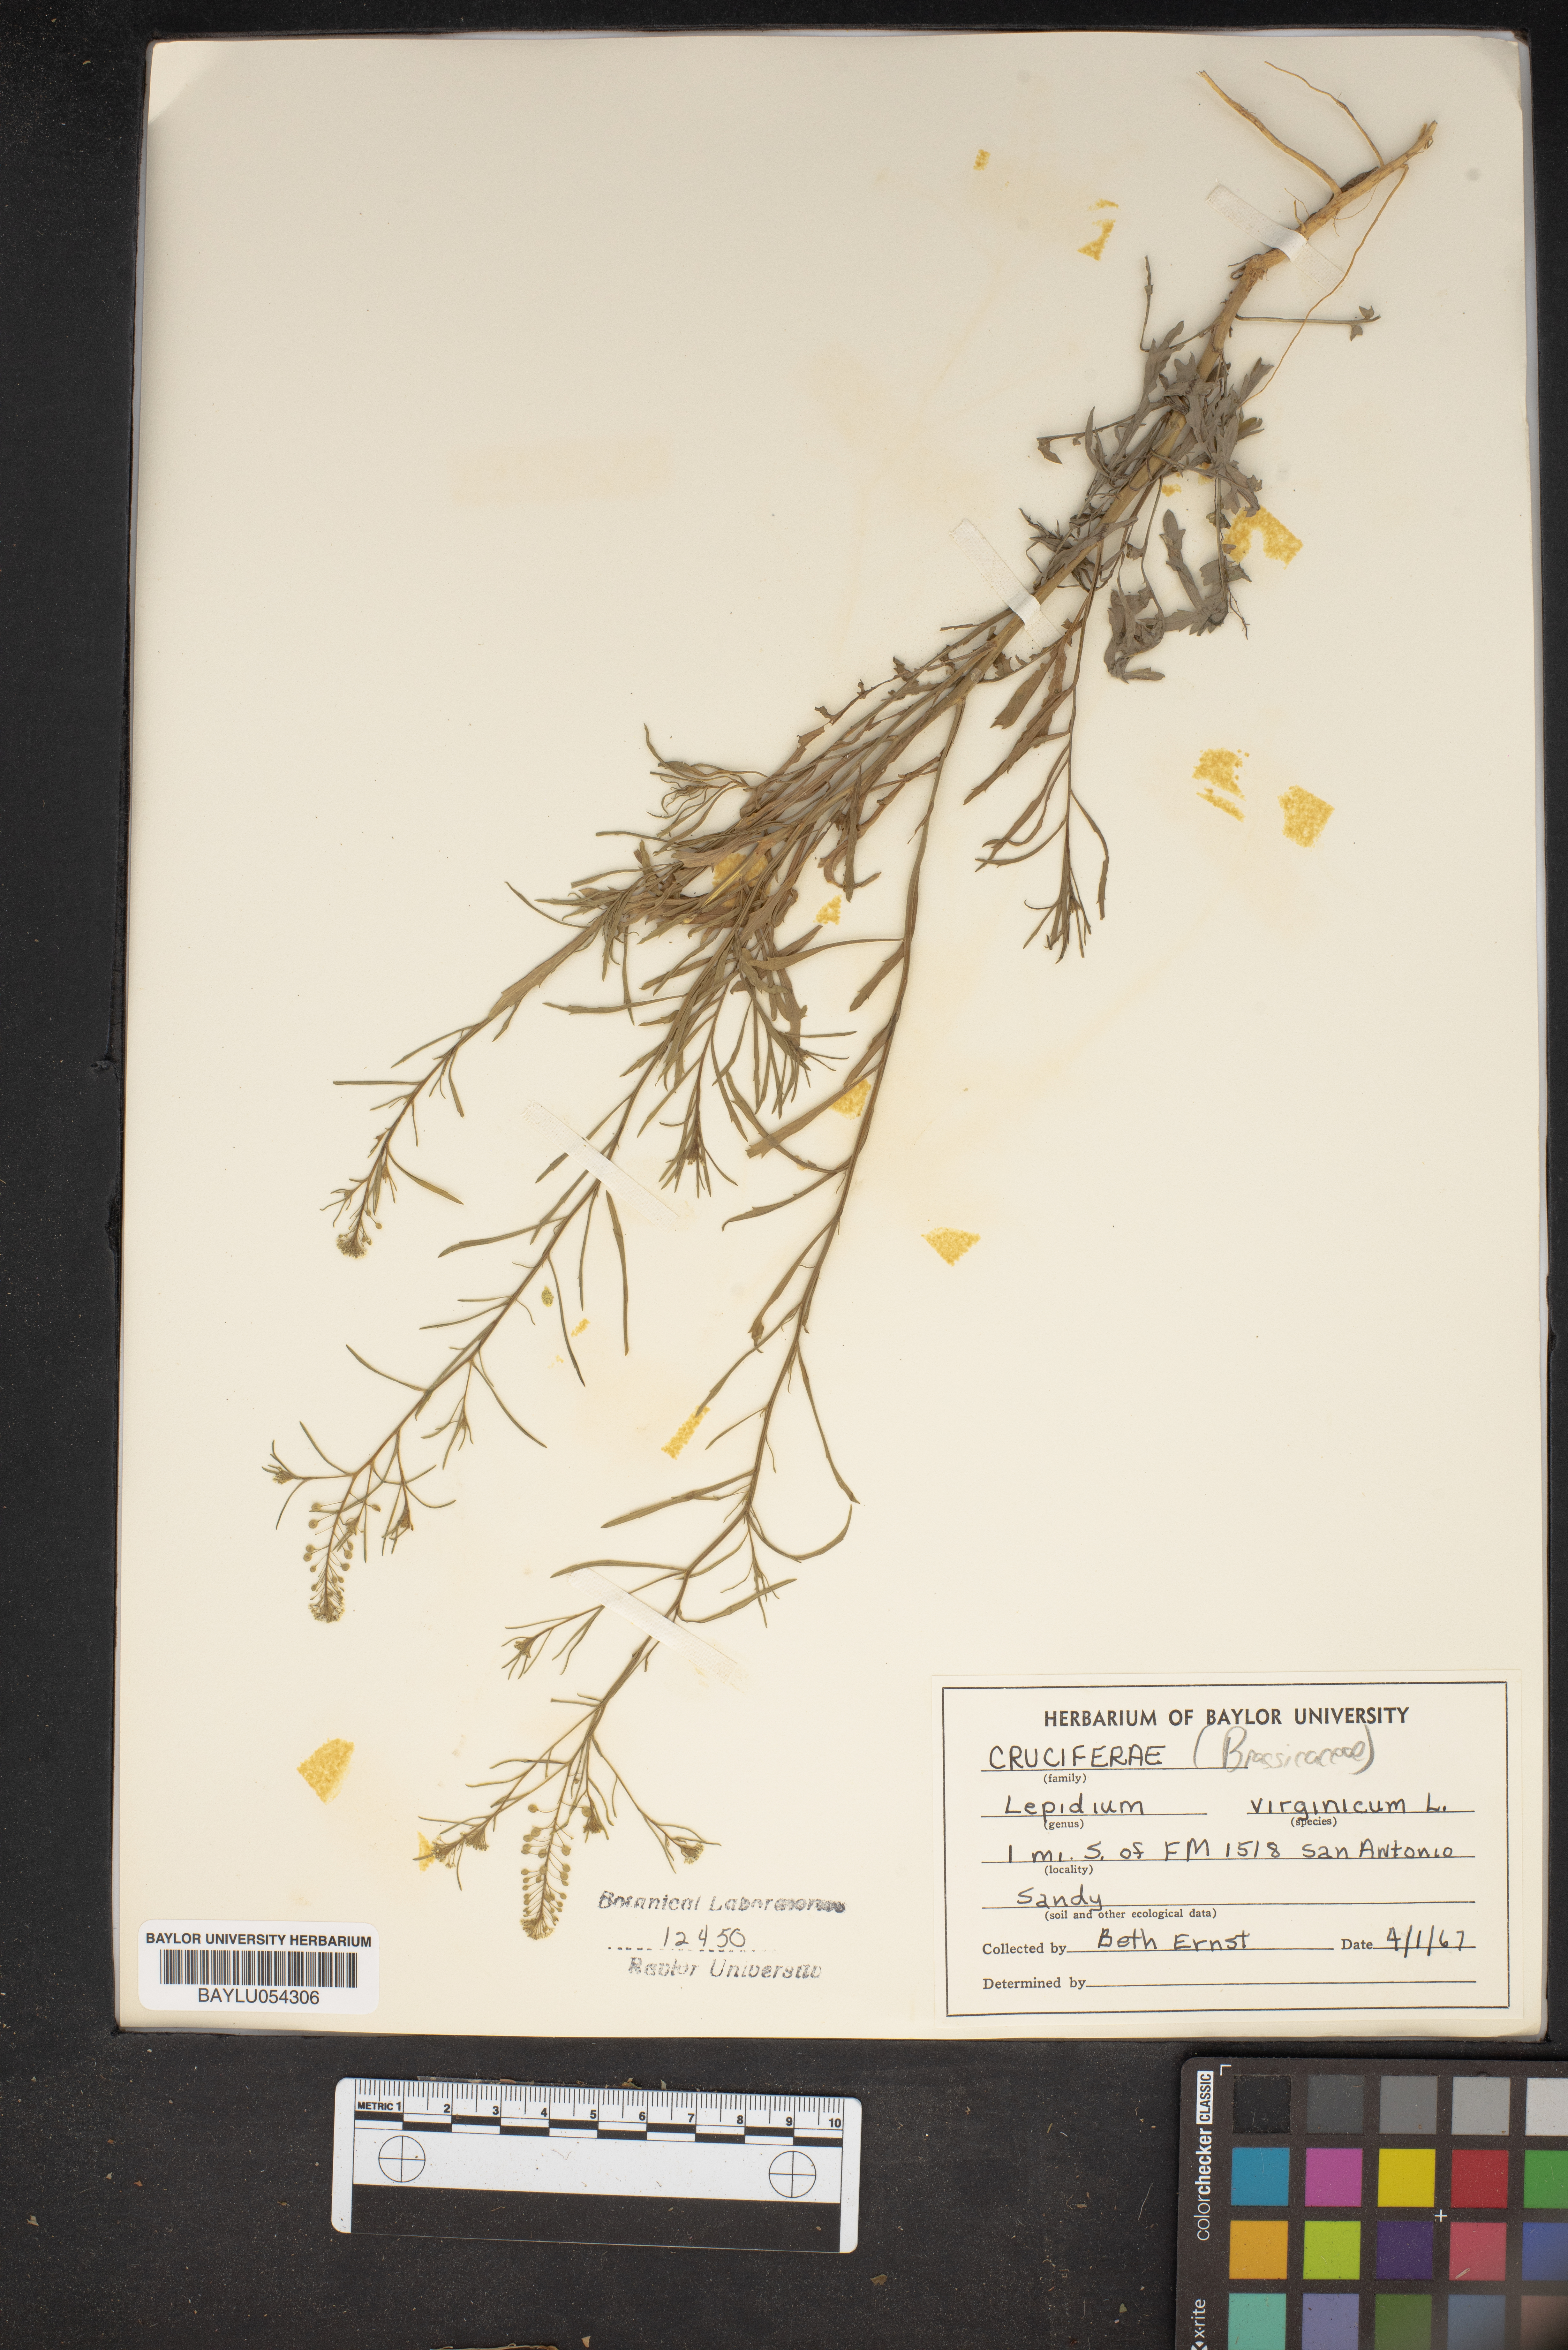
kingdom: Plantae
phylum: Tracheophyta
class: Magnoliopsida
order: Brassicales
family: Brassicaceae
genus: Lepidium
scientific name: Lepidium virginicum
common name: Least pepperwort
